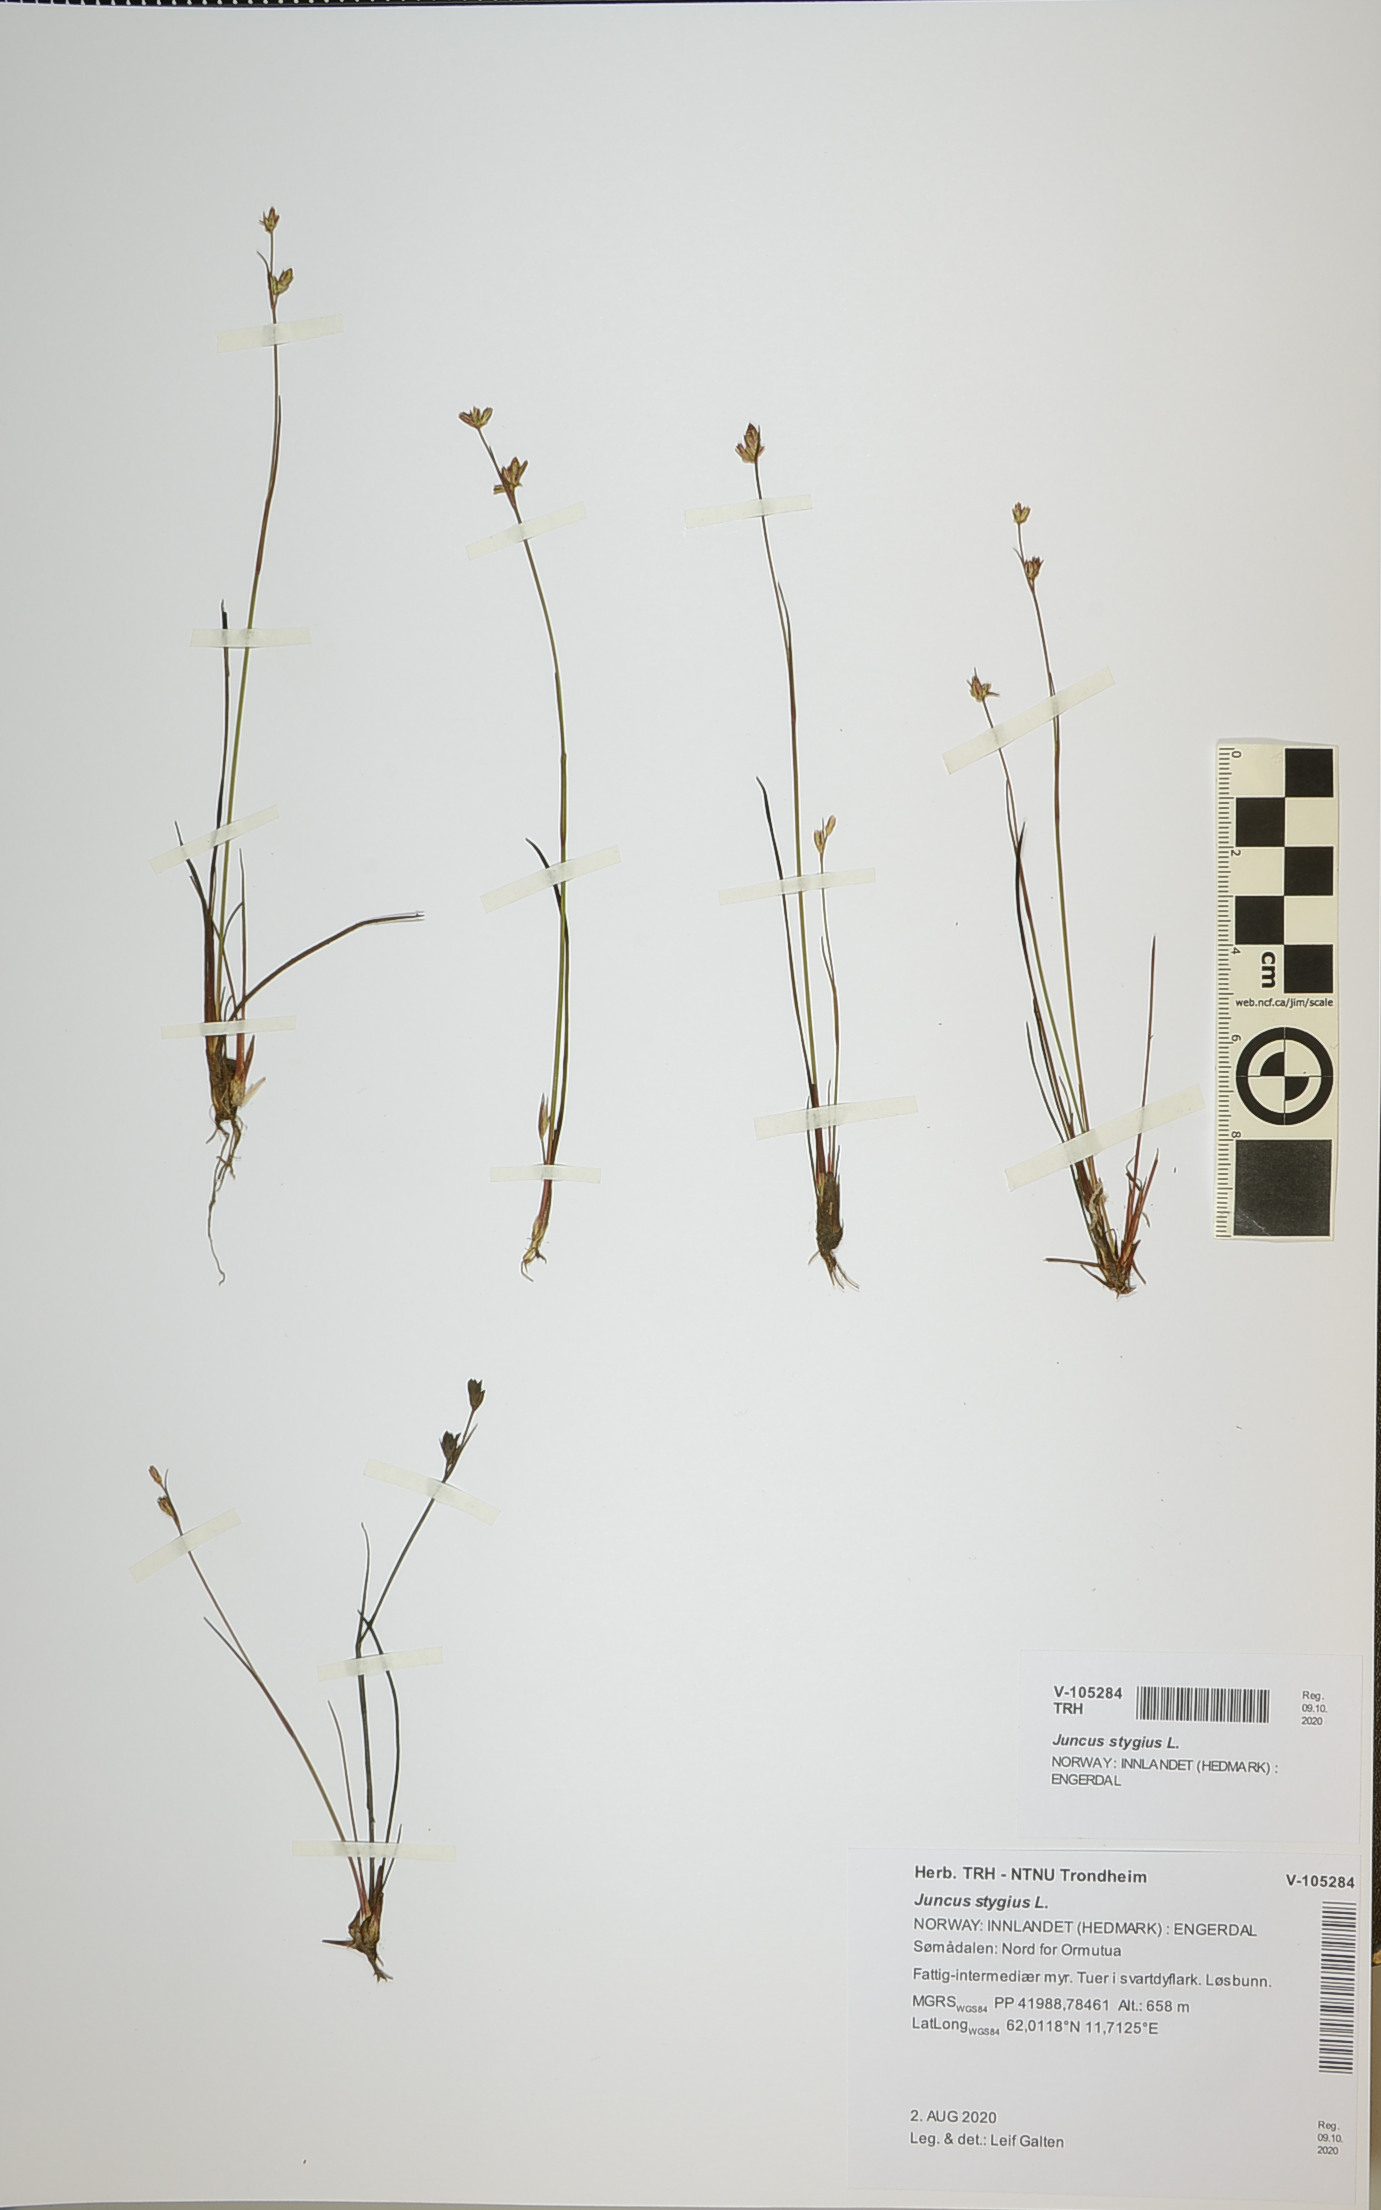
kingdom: Plantae
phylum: Tracheophyta
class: Liliopsida
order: Poales
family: Juncaceae
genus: Juncus
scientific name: Juncus stygius
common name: Bog rush
